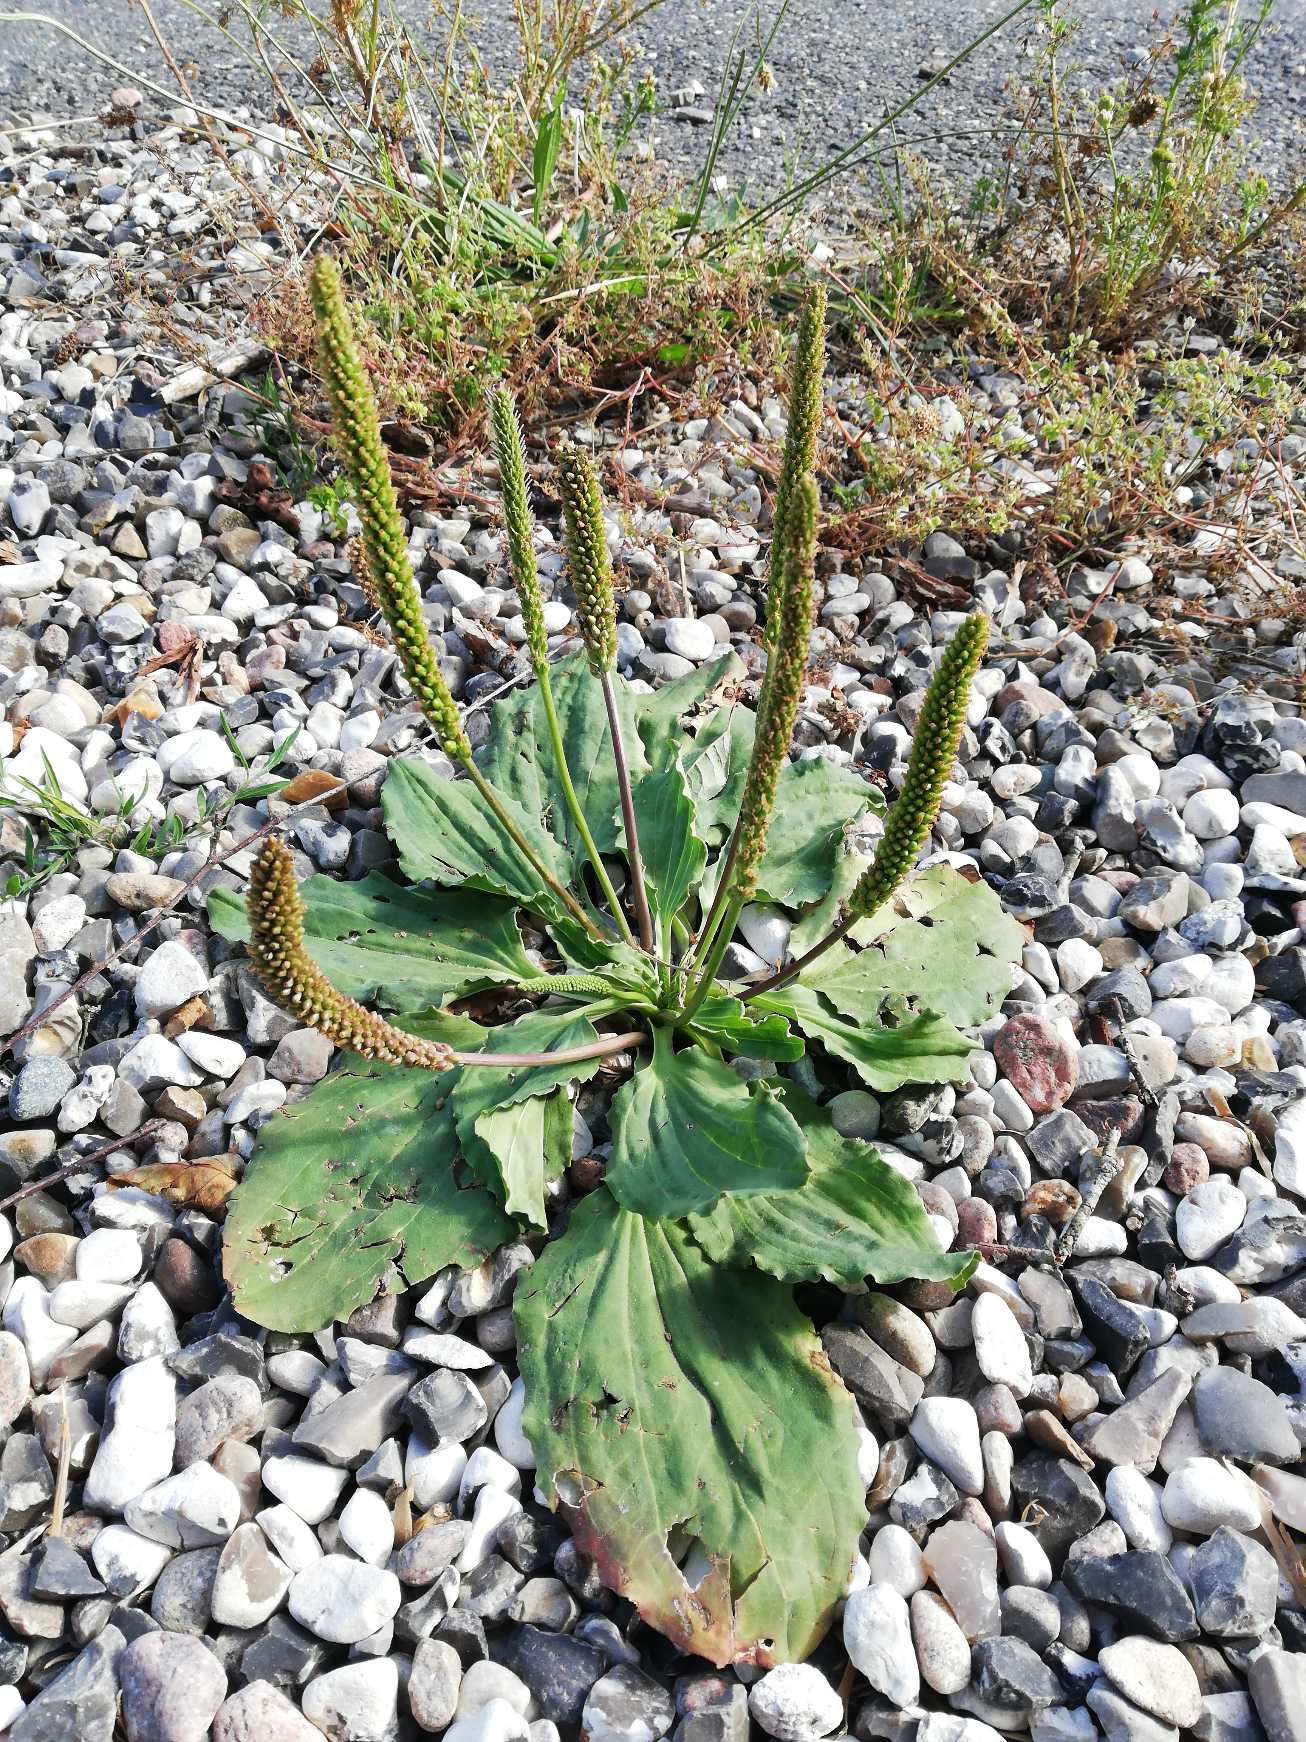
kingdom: Plantae
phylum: Tracheophyta
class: Magnoliopsida
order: Lamiales
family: Plantaginaceae
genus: Plantago
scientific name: Plantago major
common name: Glat vejbred
